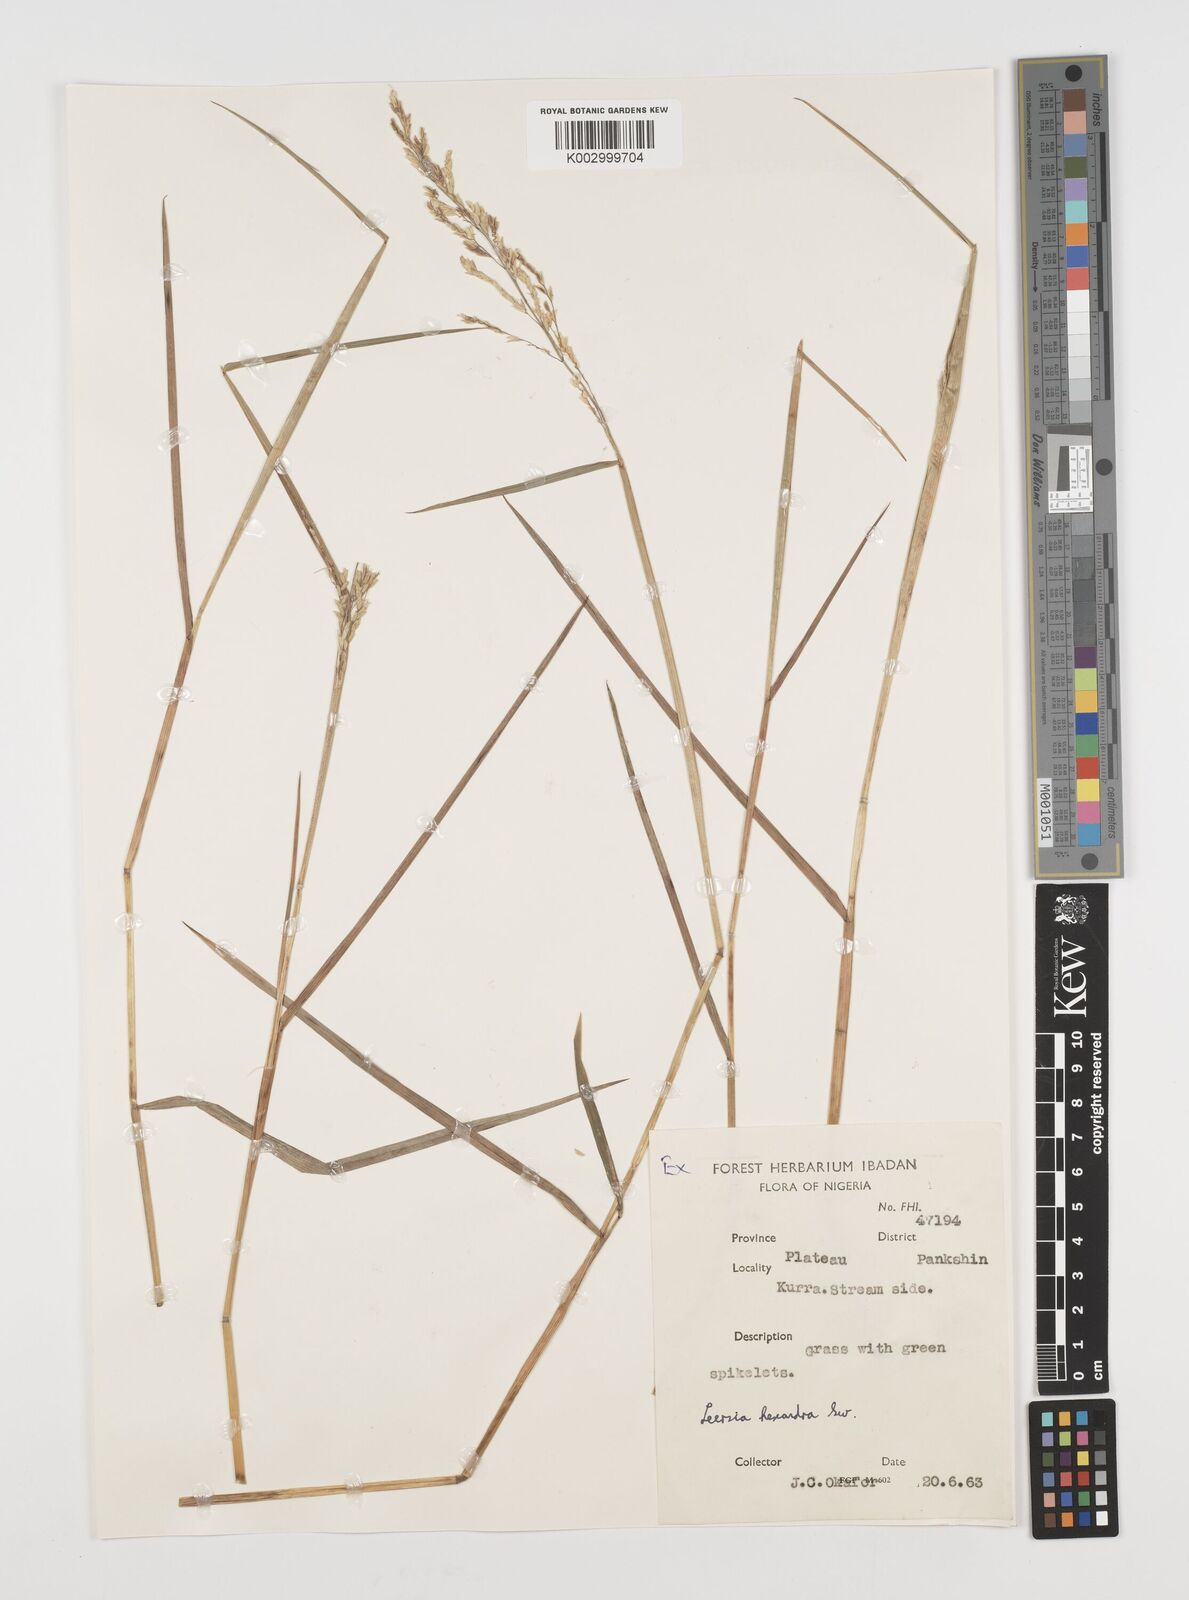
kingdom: Plantae
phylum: Tracheophyta
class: Liliopsida
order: Poales
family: Poaceae
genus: Leersia
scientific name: Leersia hexandra
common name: Southern cut grass
